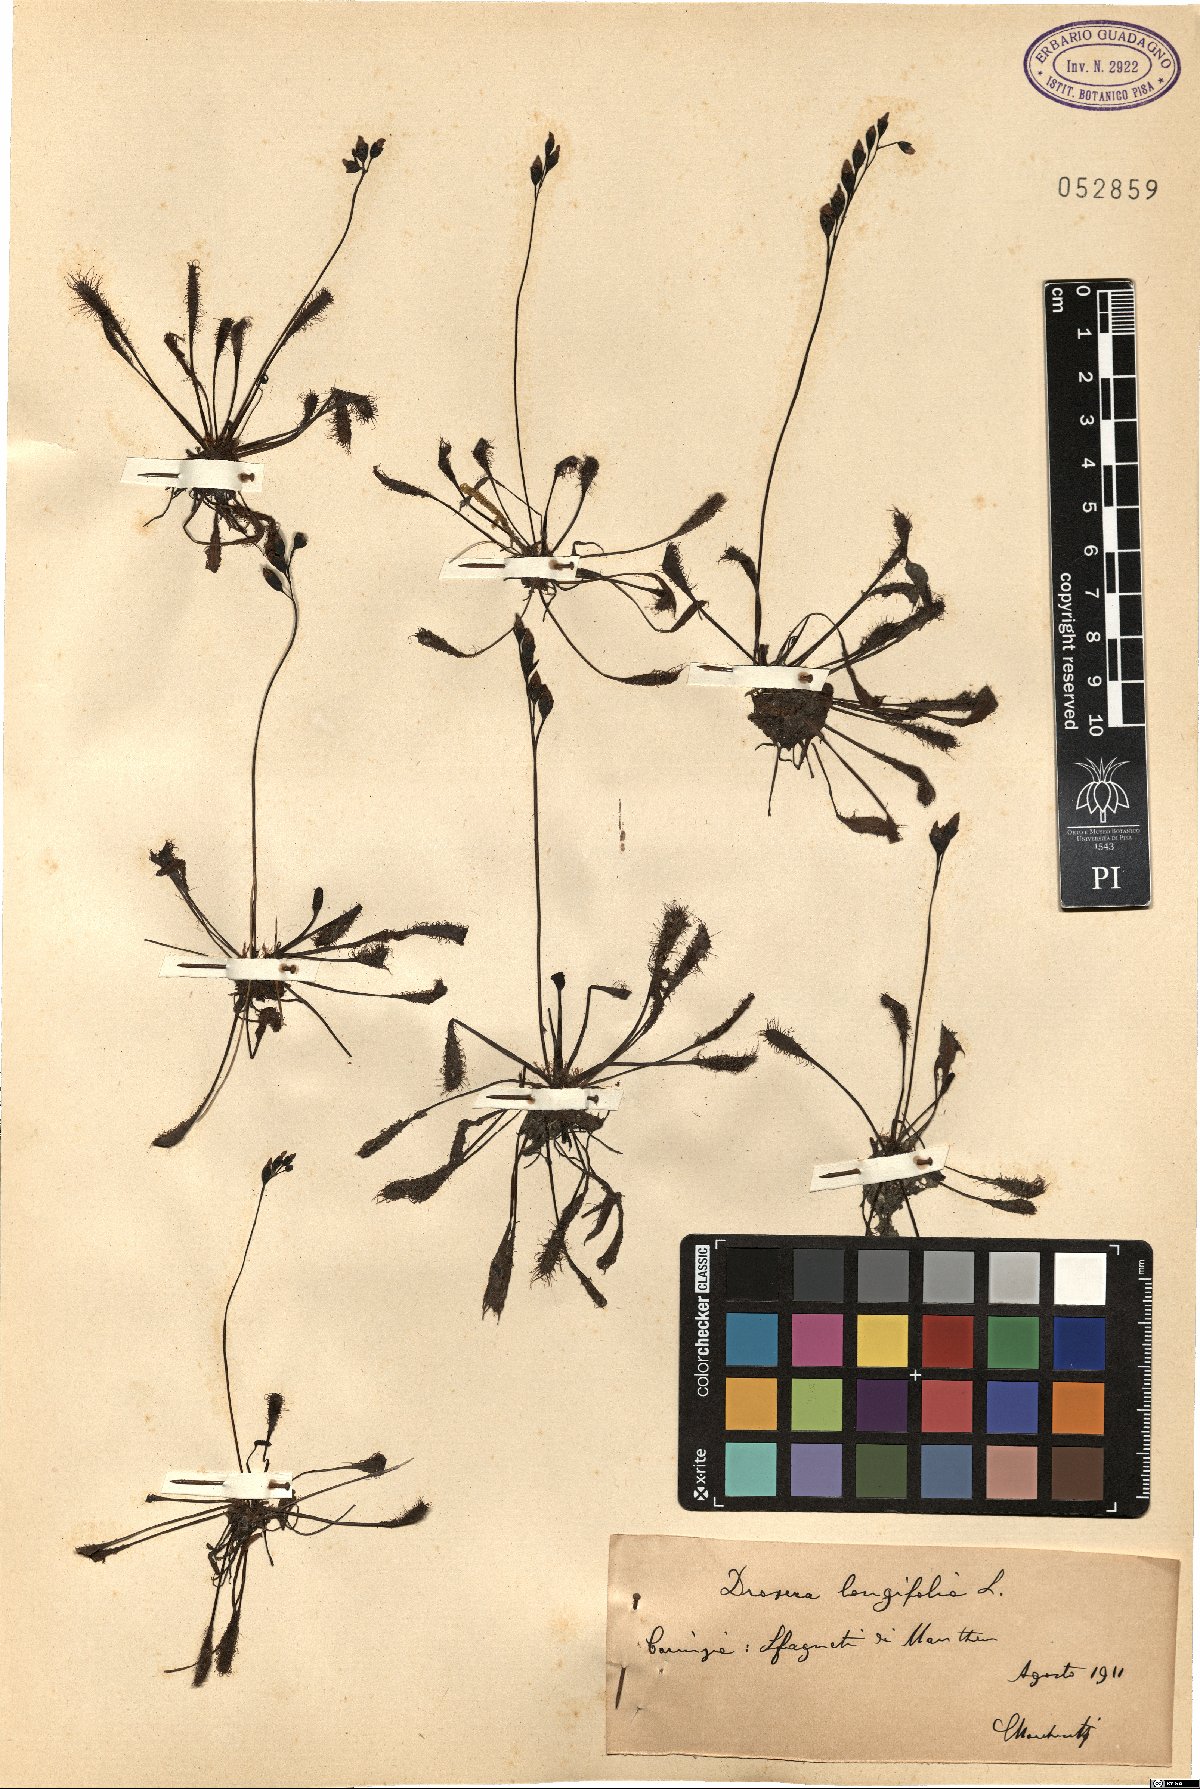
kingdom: Plantae
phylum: Tracheophyta
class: Magnoliopsida
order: Caryophyllales
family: Droseraceae
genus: Drosera
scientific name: Drosera anglica
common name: Great sundew
